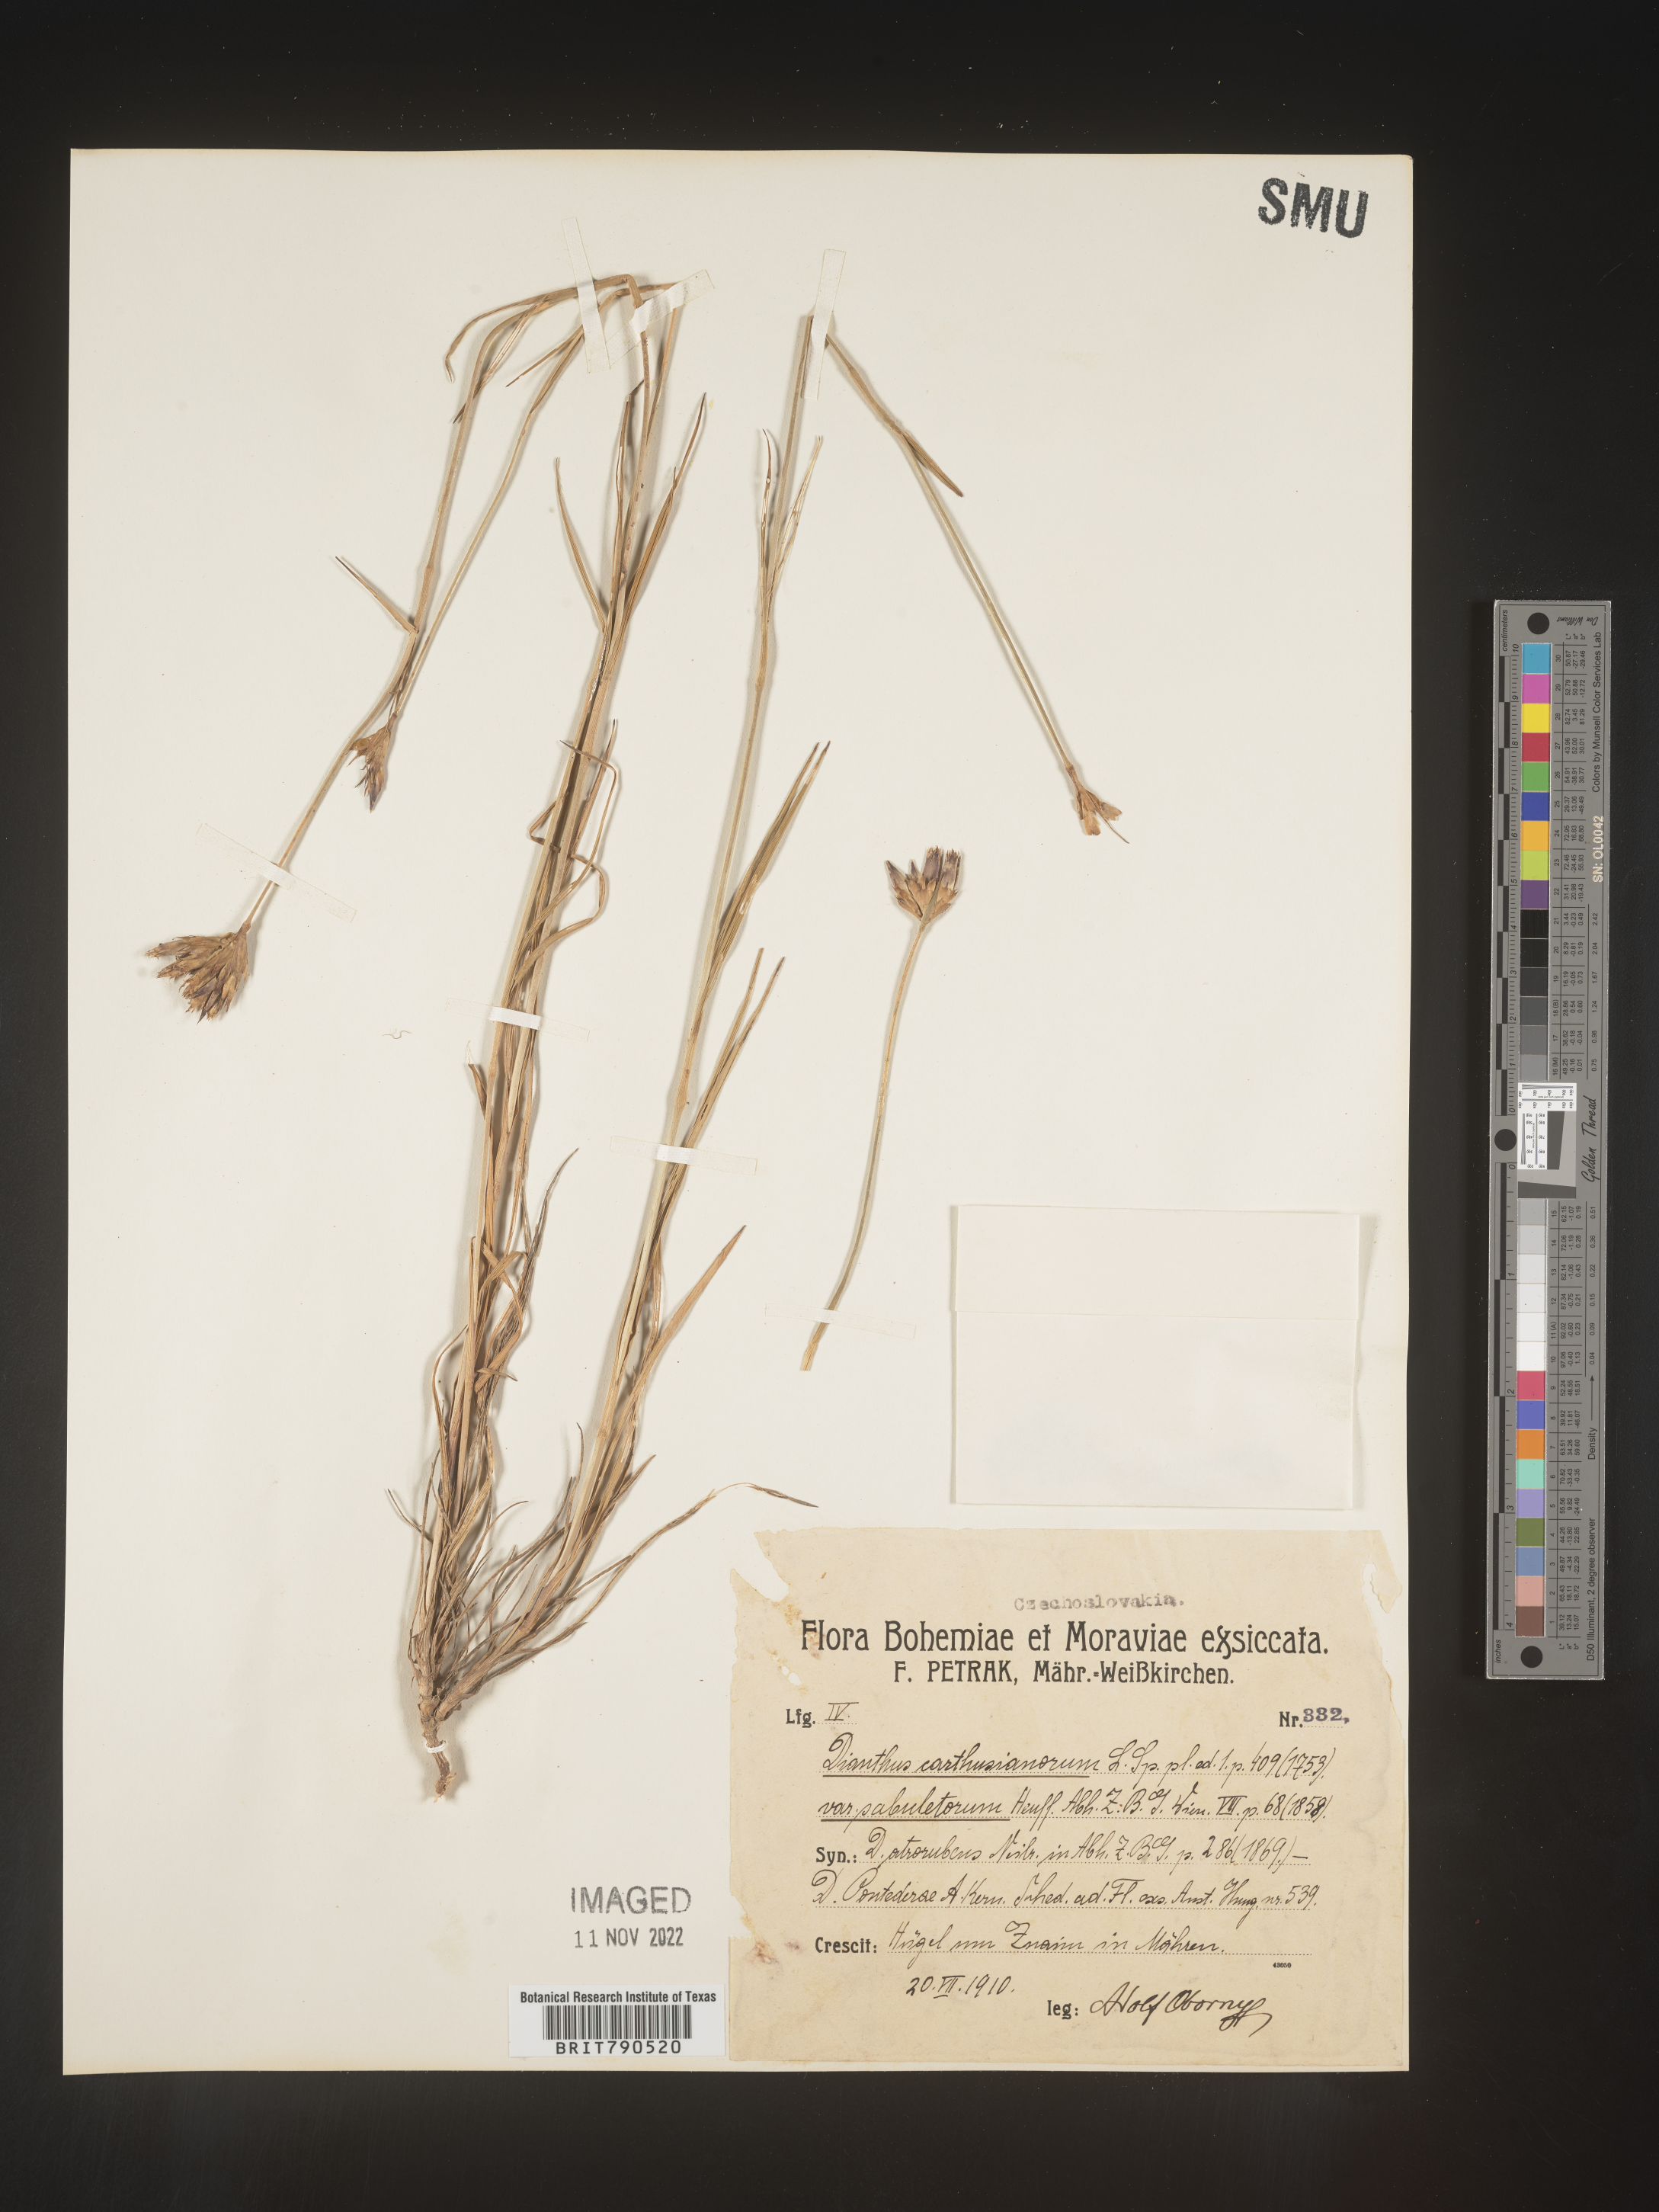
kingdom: Plantae
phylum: Tracheophyta
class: Magnoliopsida
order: Caryophyllales
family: Caryophyllaceae
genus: Dianthus
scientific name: Dianthus carthusianorum
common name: Carthusian pink
